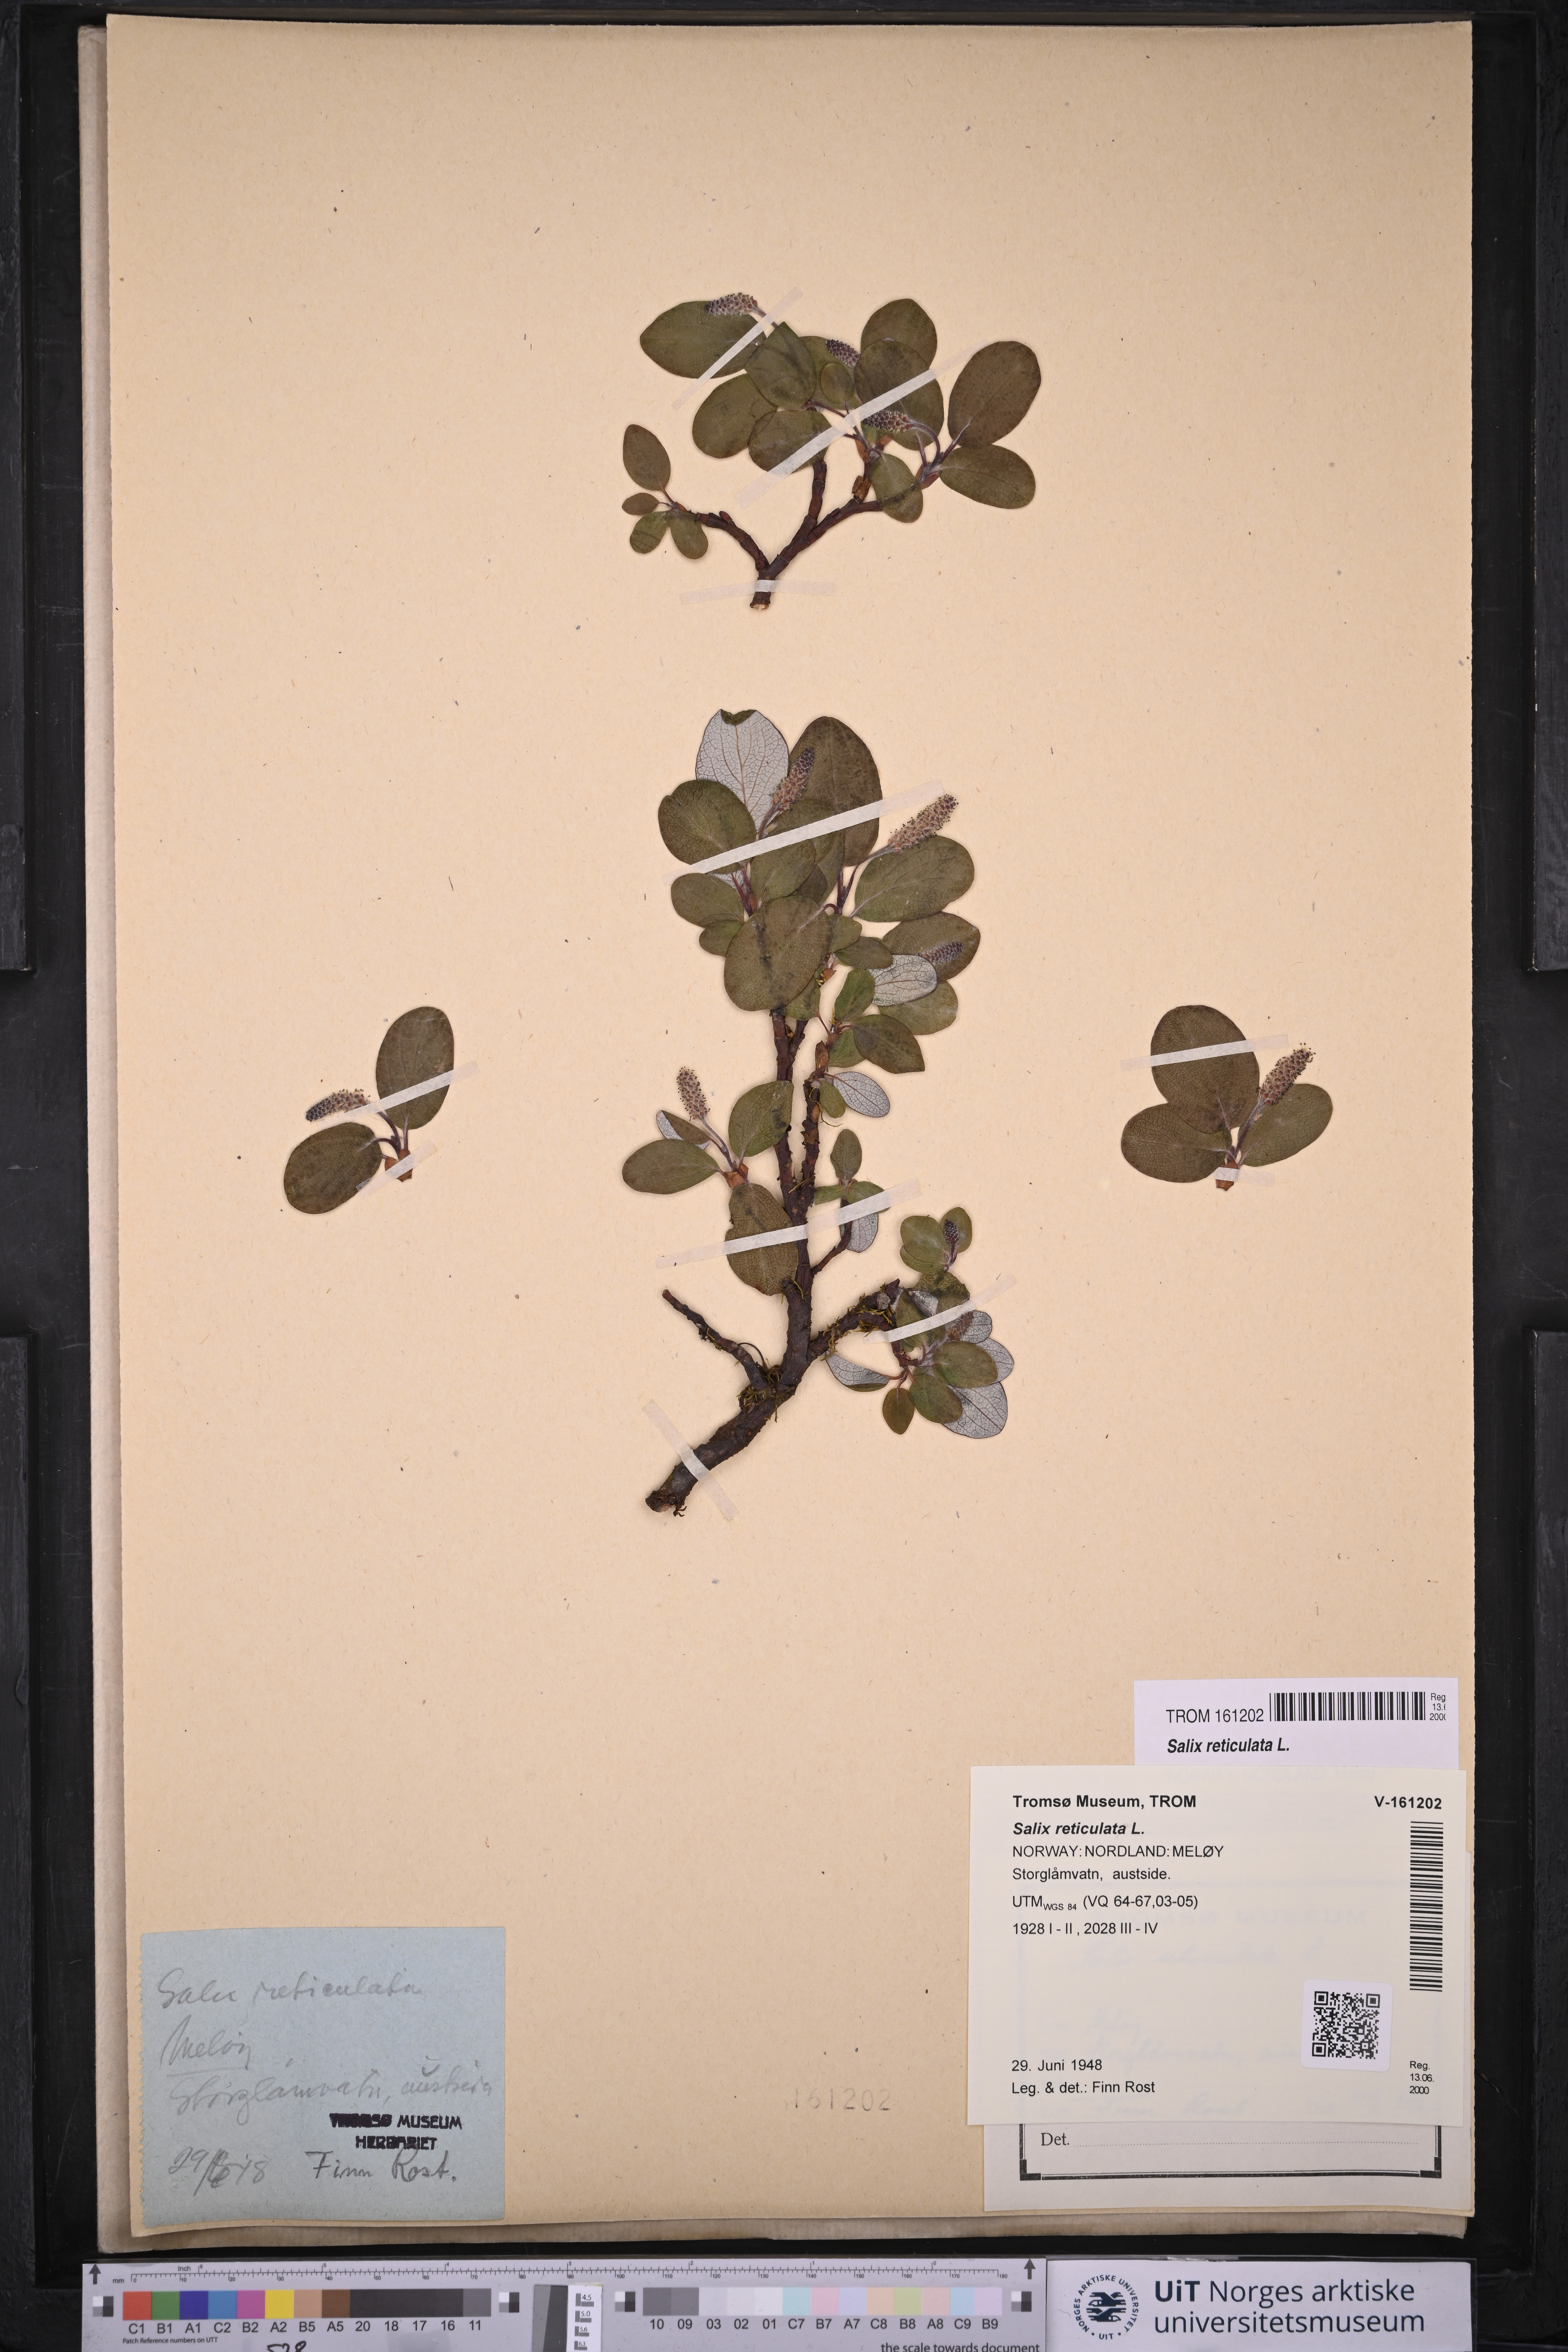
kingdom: Plantae
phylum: Tracheophyta
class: Magnoliopsida
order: Malpighiales
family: Salicaceae
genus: Salix
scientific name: Salix reticulata
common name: Net-leaved willow
